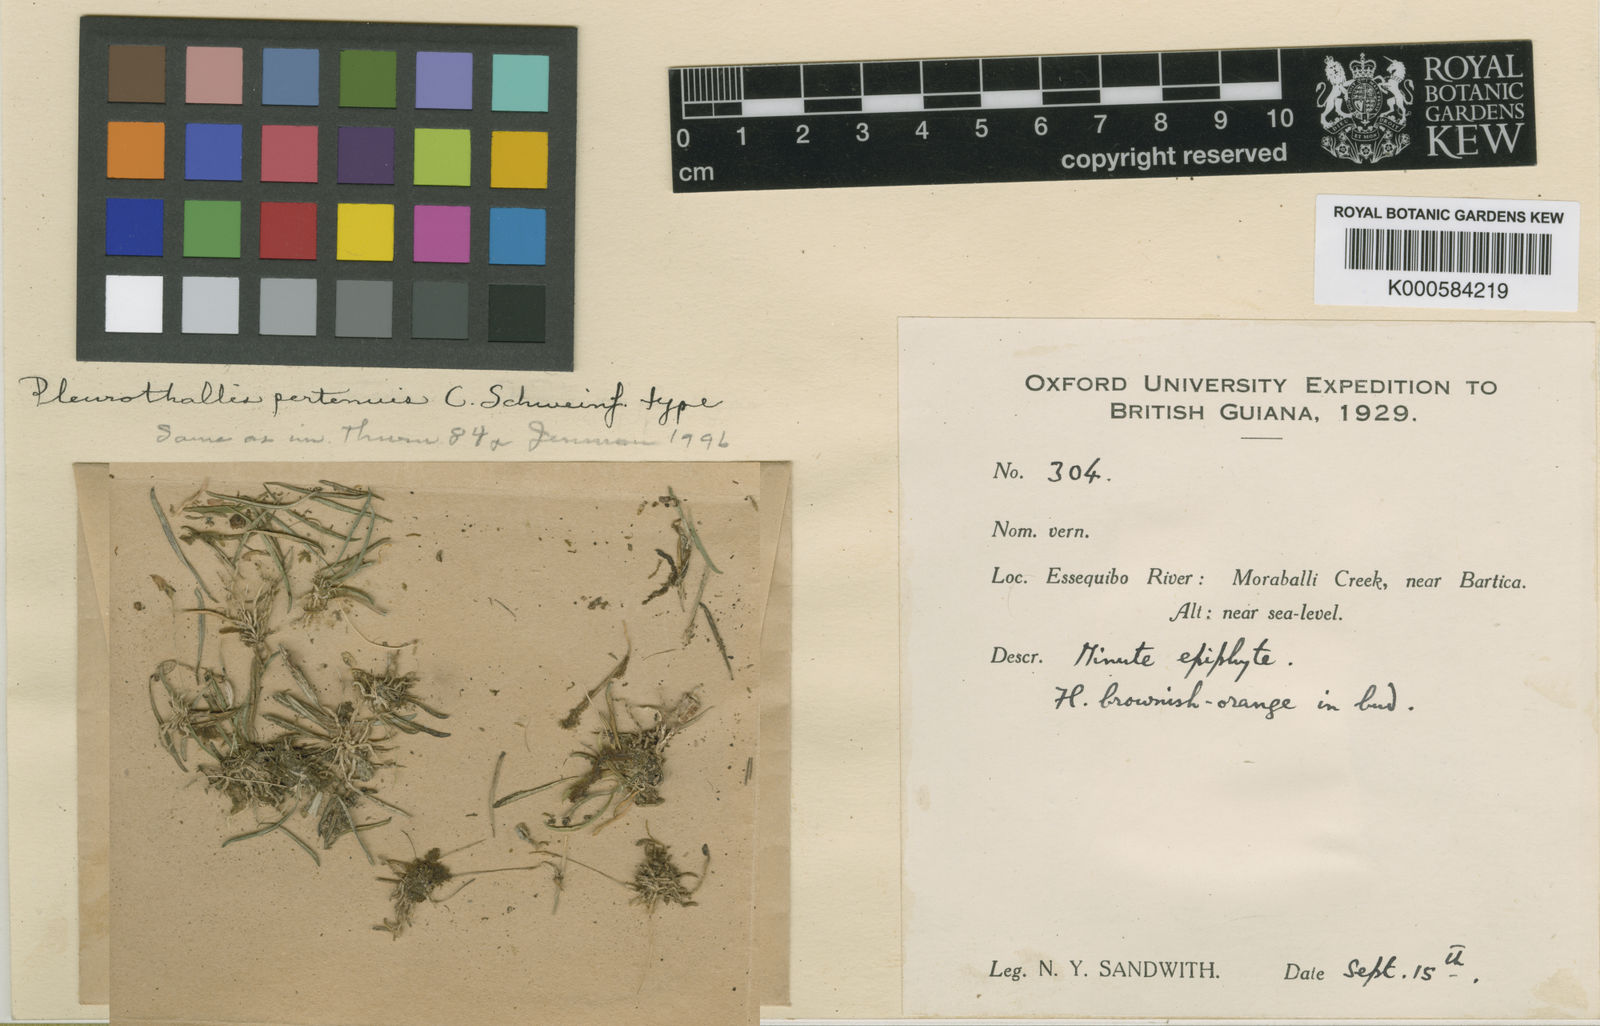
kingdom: Plantae
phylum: Tracheophyta
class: Liliopsida
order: Asparagales
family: Orchidaceae
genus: Specklinia
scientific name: Specklinia pertenuis
